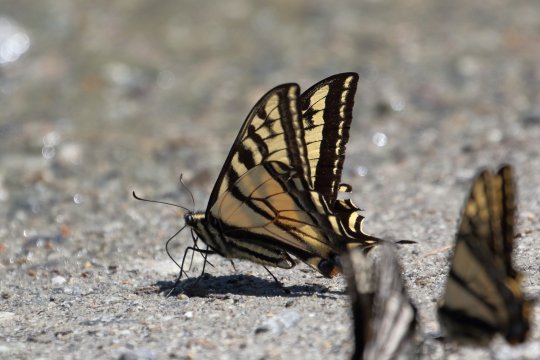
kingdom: Animalia
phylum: Arthropoda
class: Insecta
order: Lepidoptera
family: Papilionidae
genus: Pterourus
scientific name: Pterourus rutulus
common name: Western Tiger Swallowtail
